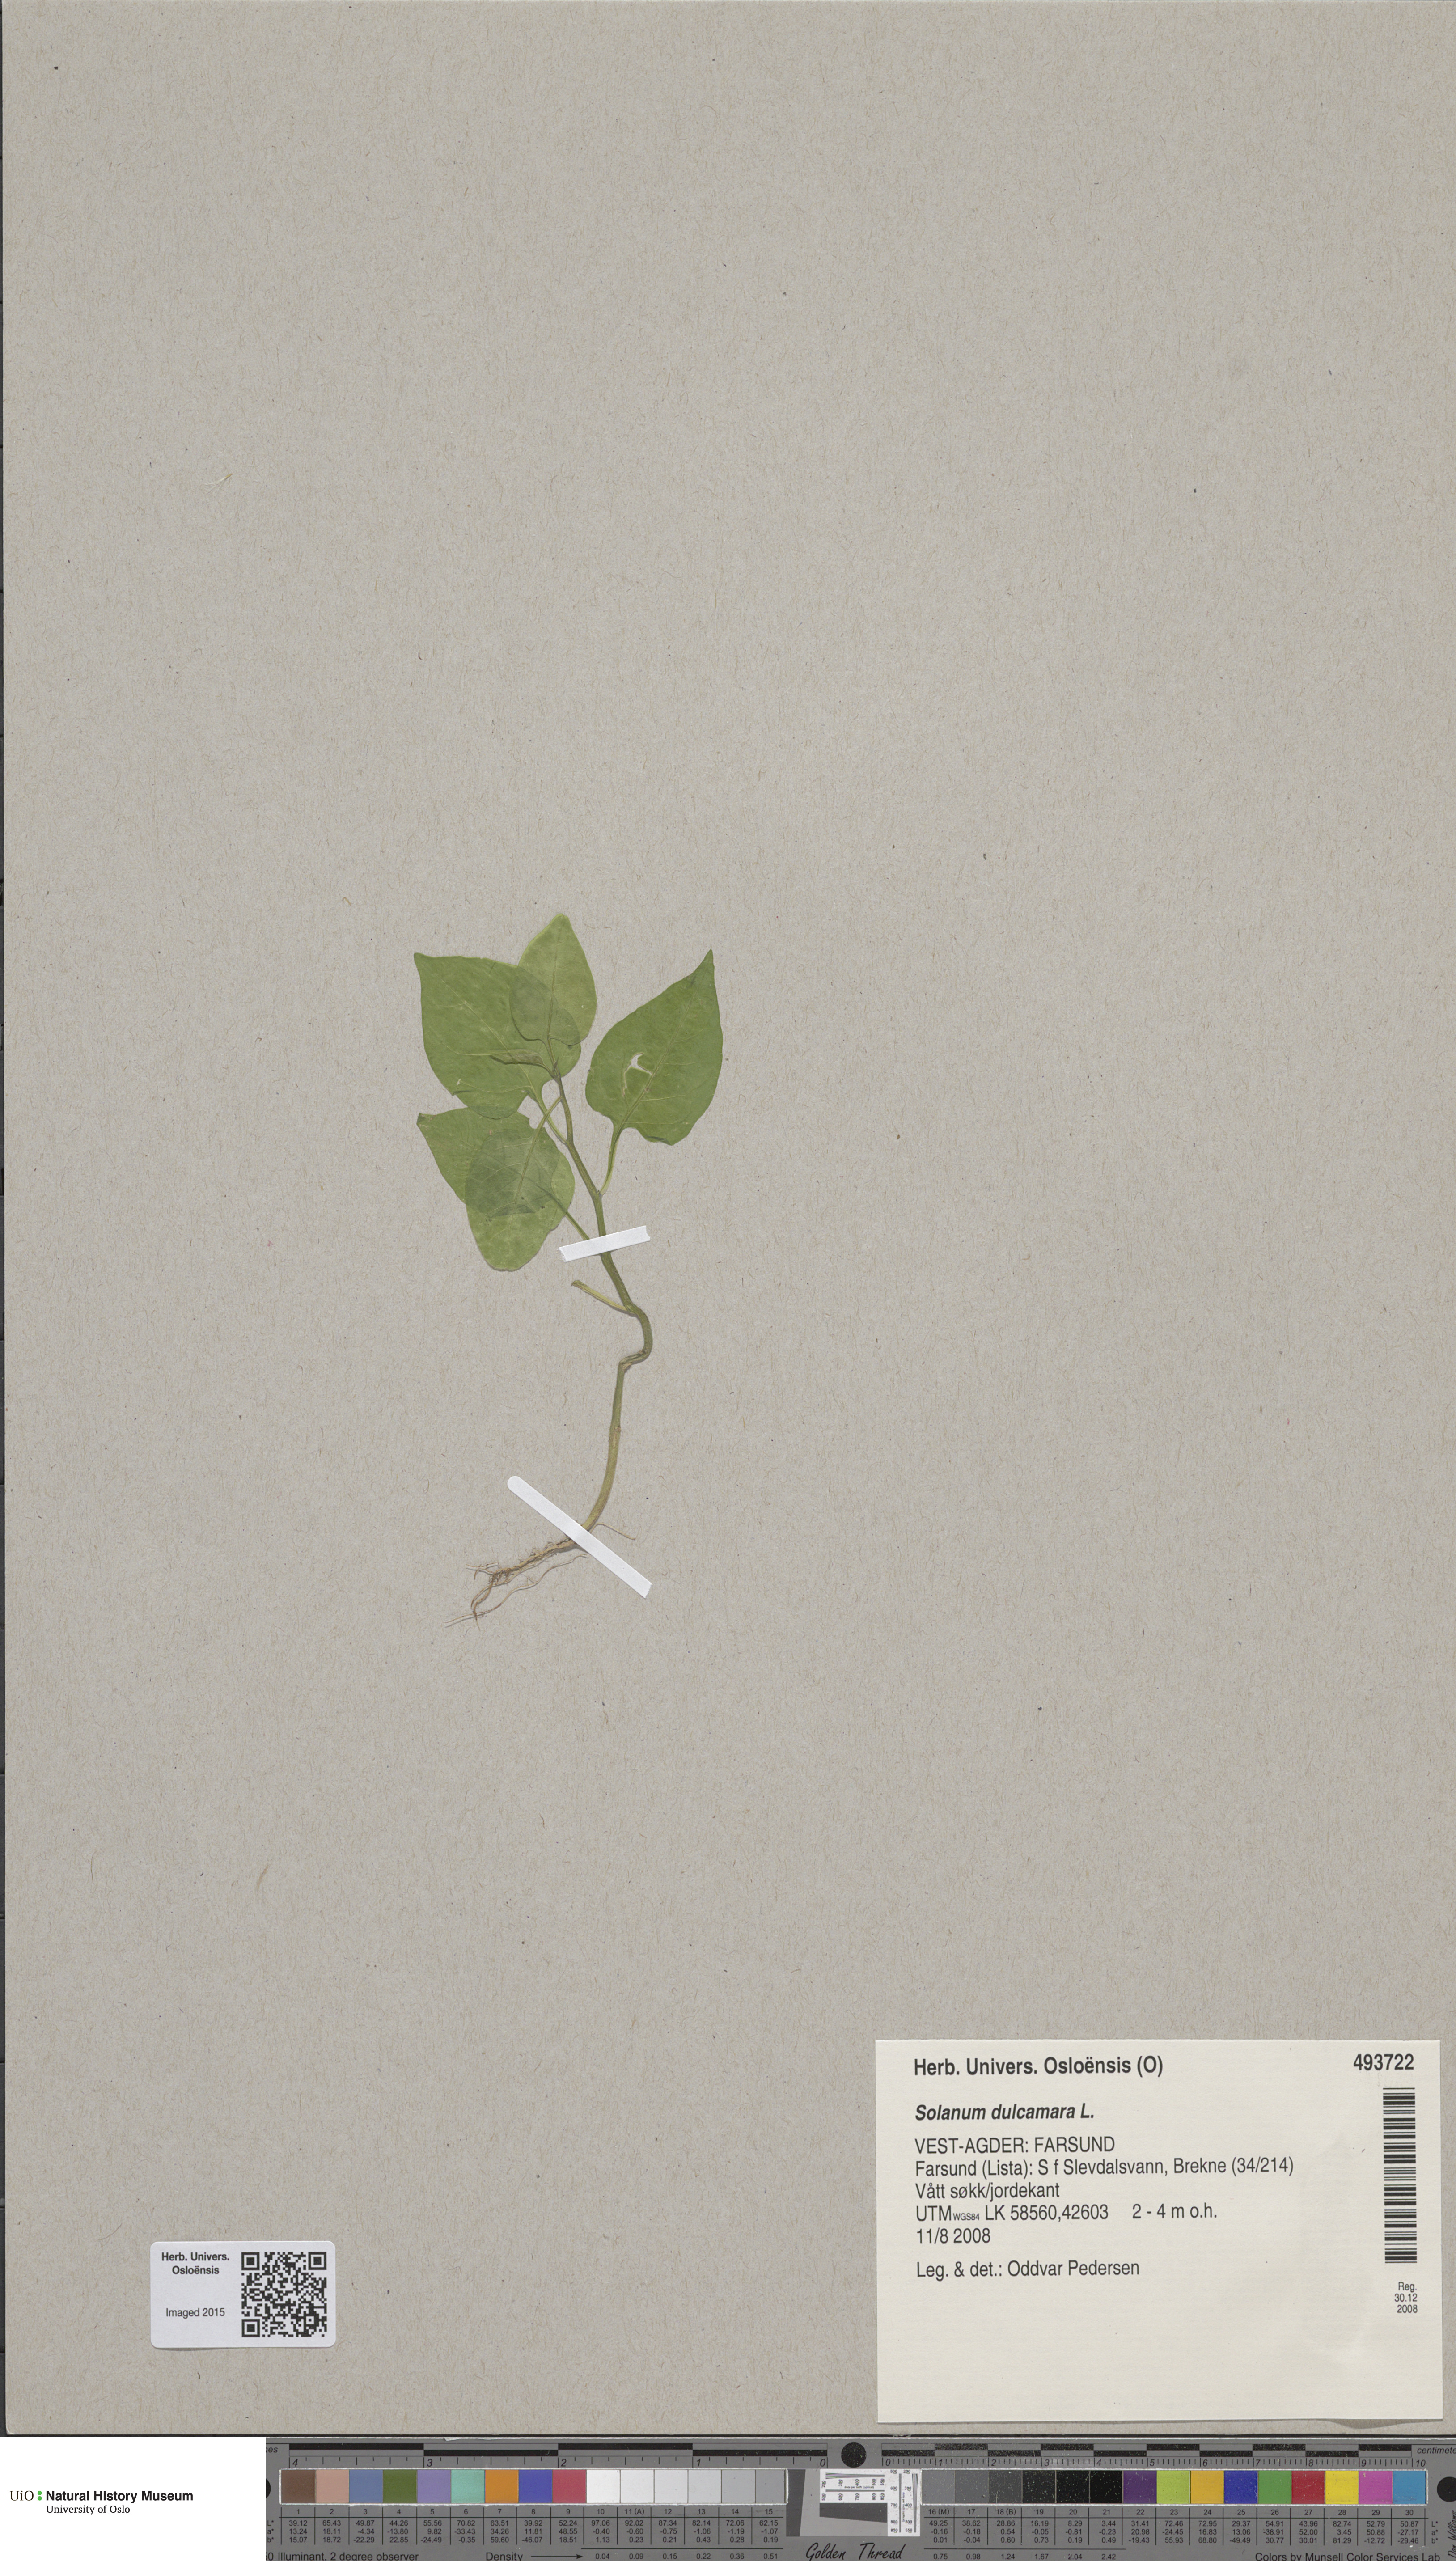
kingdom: Plantae
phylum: Tracheophyta
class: Magnoliopsida
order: Solanales
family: Solanaceae
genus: Solanum
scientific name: Solanum dulcamara
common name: Climbing nightshade
